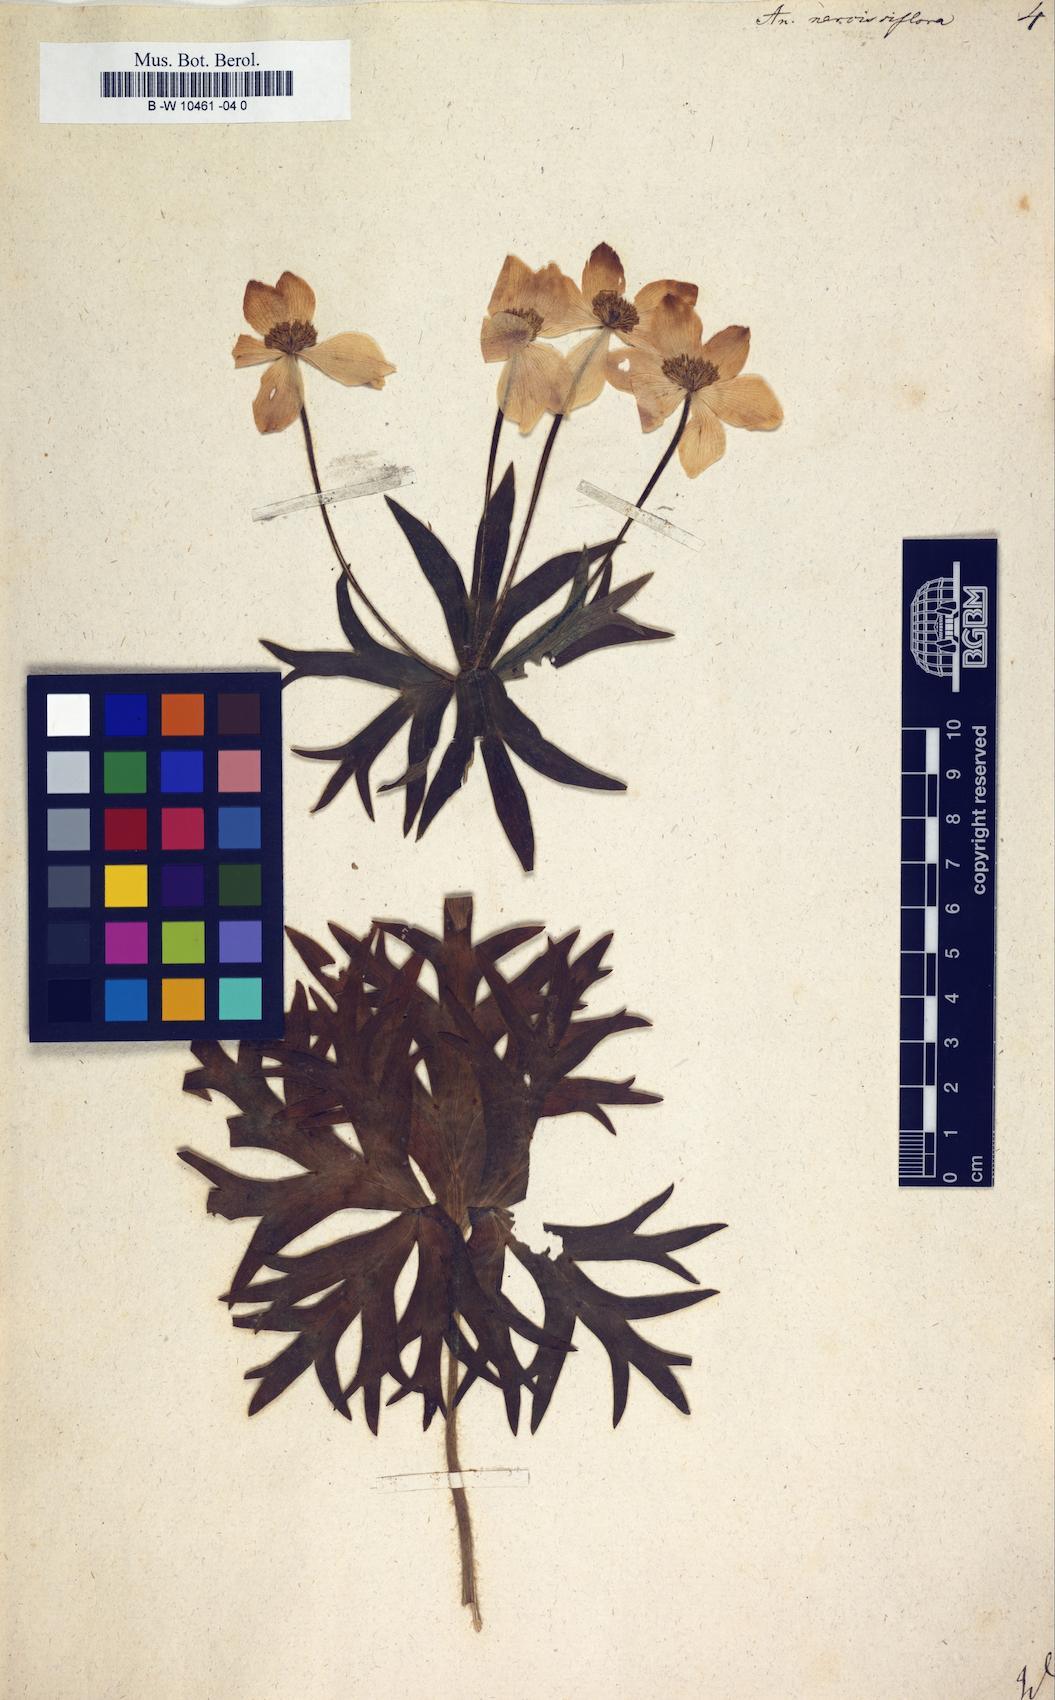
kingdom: Plantae
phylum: Tracheophyta
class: Magnoliopsida
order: Ranunculales
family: Ranunculaceae
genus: Anemonastrum
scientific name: Anemonastrum narcissiflorum
